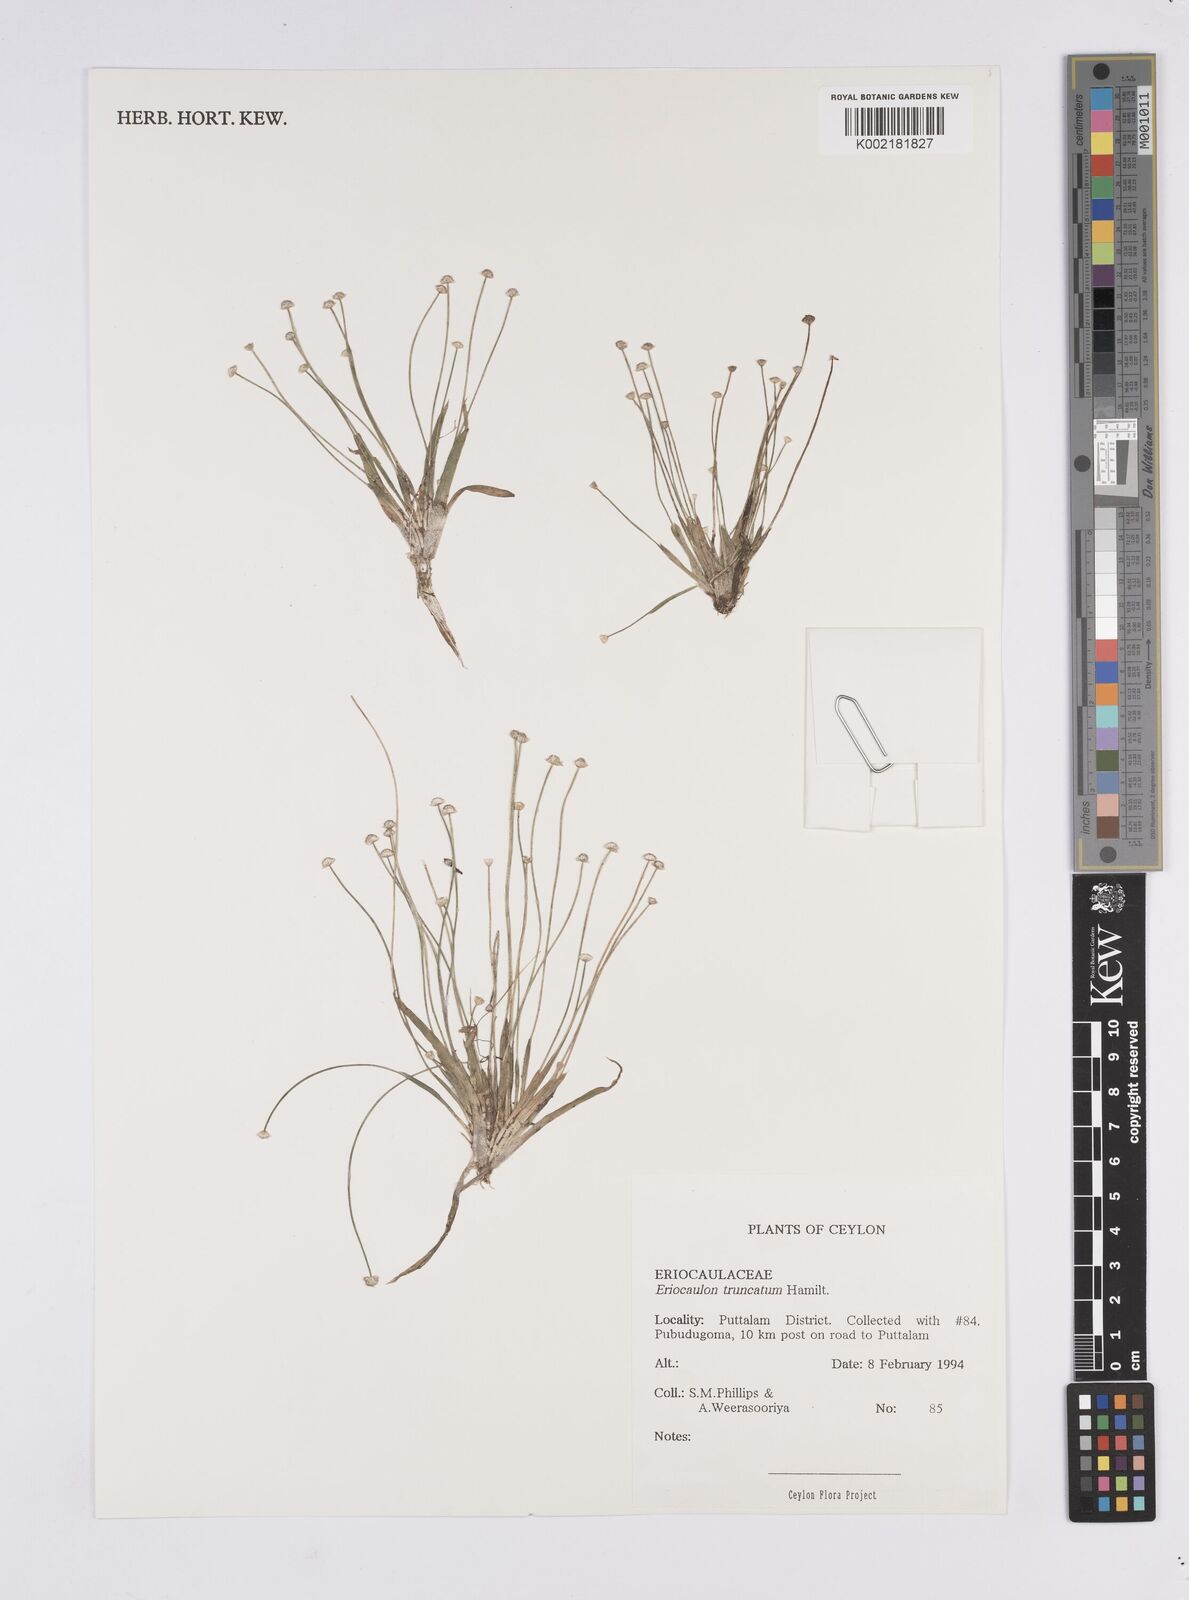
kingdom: Plantae
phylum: Tracheophyta
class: Liliopsida
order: Poales
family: Eriocaulaceae
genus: Eriocaulon
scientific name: Eriocaulon truncatum
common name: Short pipe-wort
